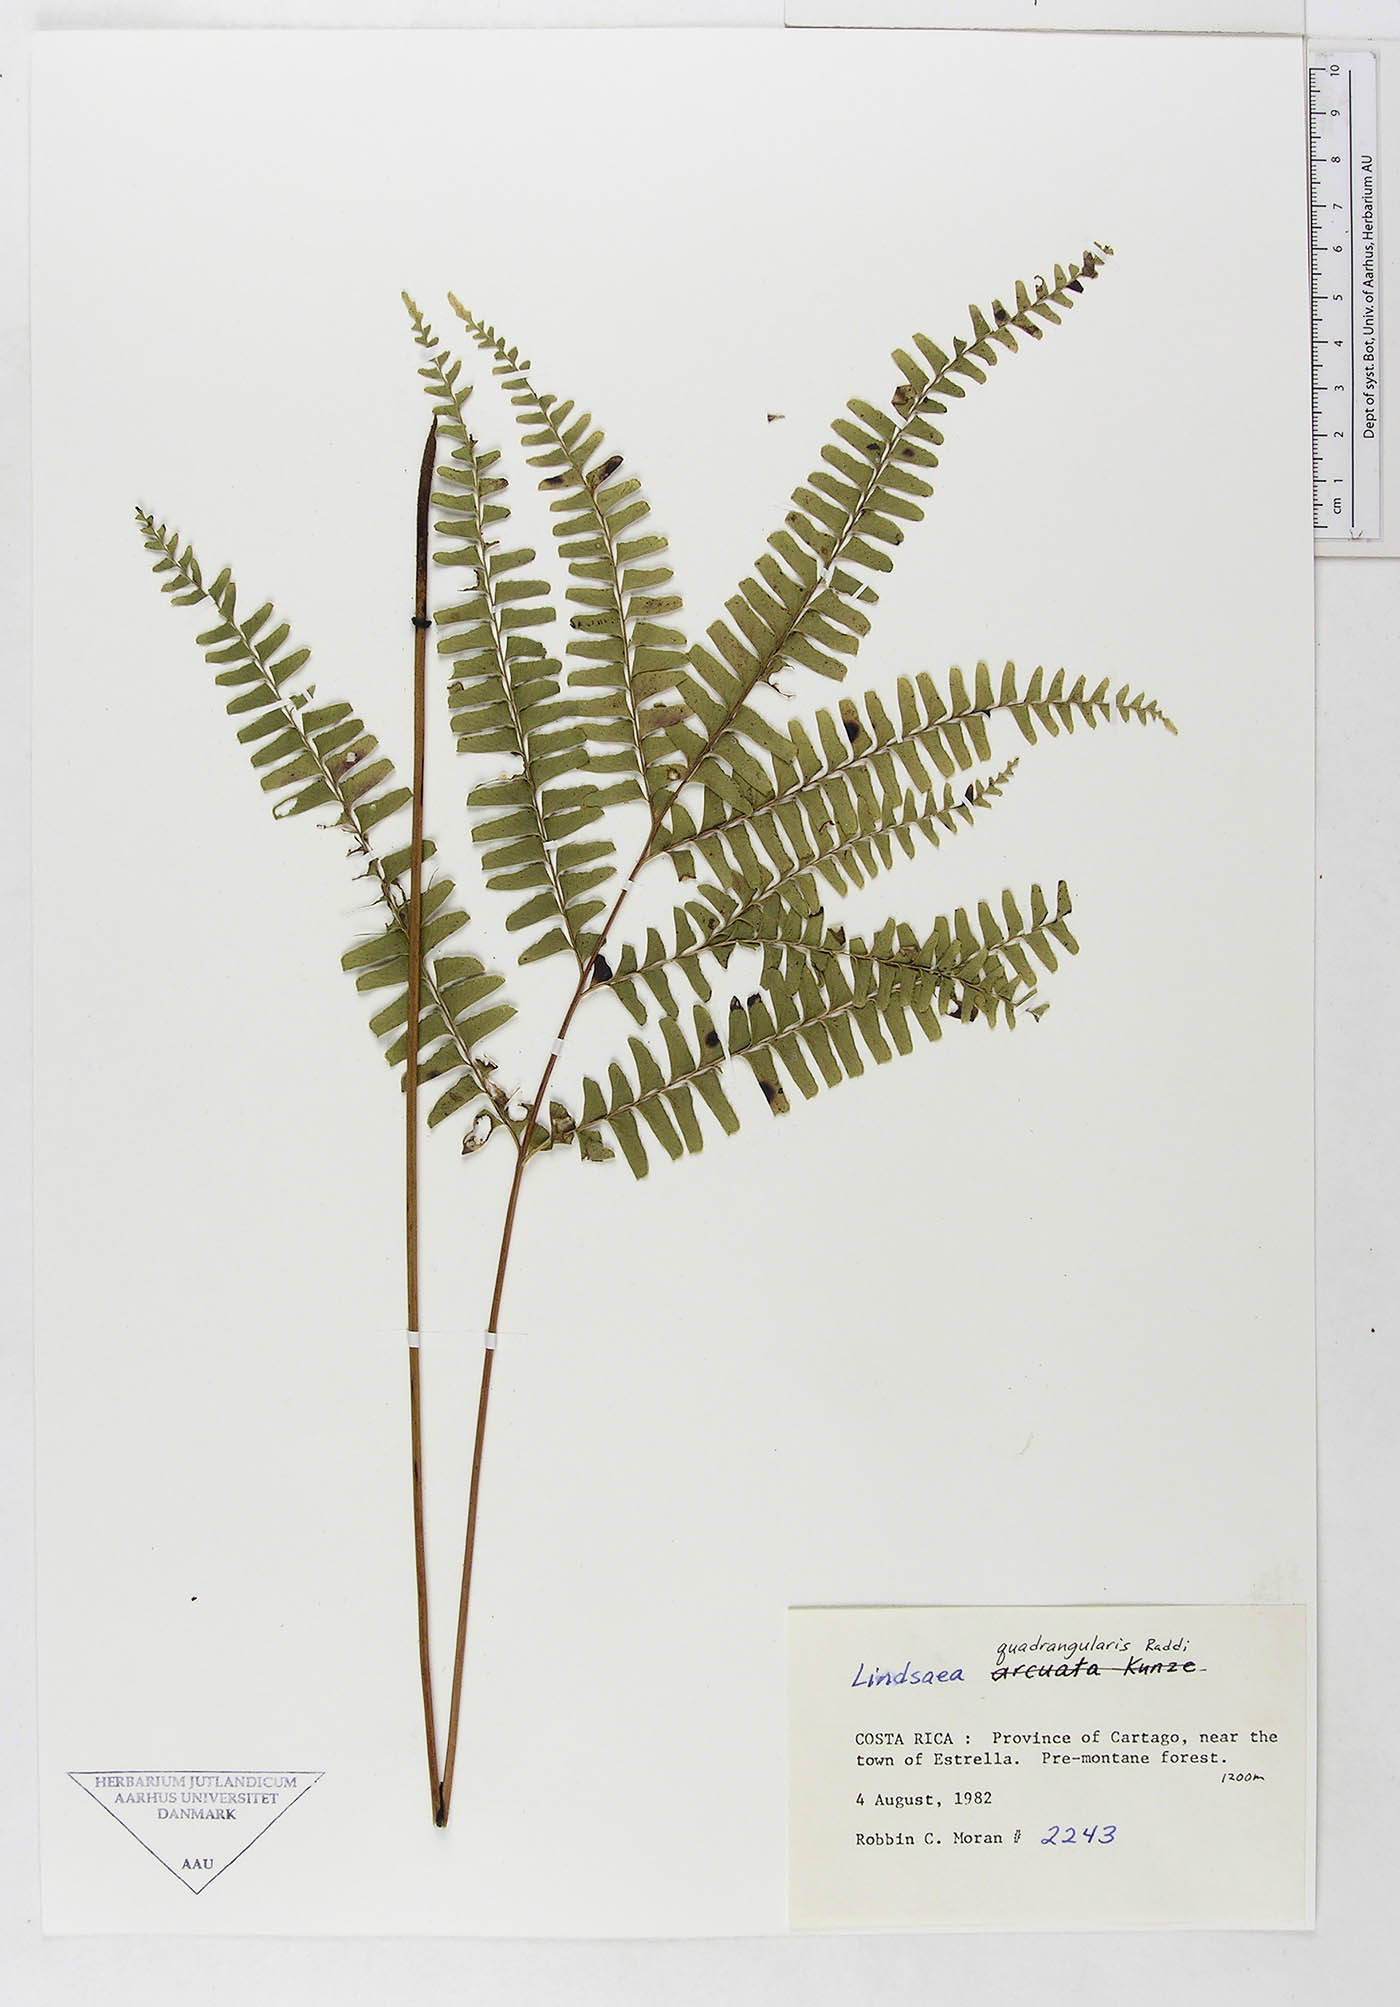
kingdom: Plantae
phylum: Tracheophyta
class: Polypodiopsida
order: Polypodiales
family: Lindsaeaceae
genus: Lindsaea
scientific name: Lindsaea quadrangularis
